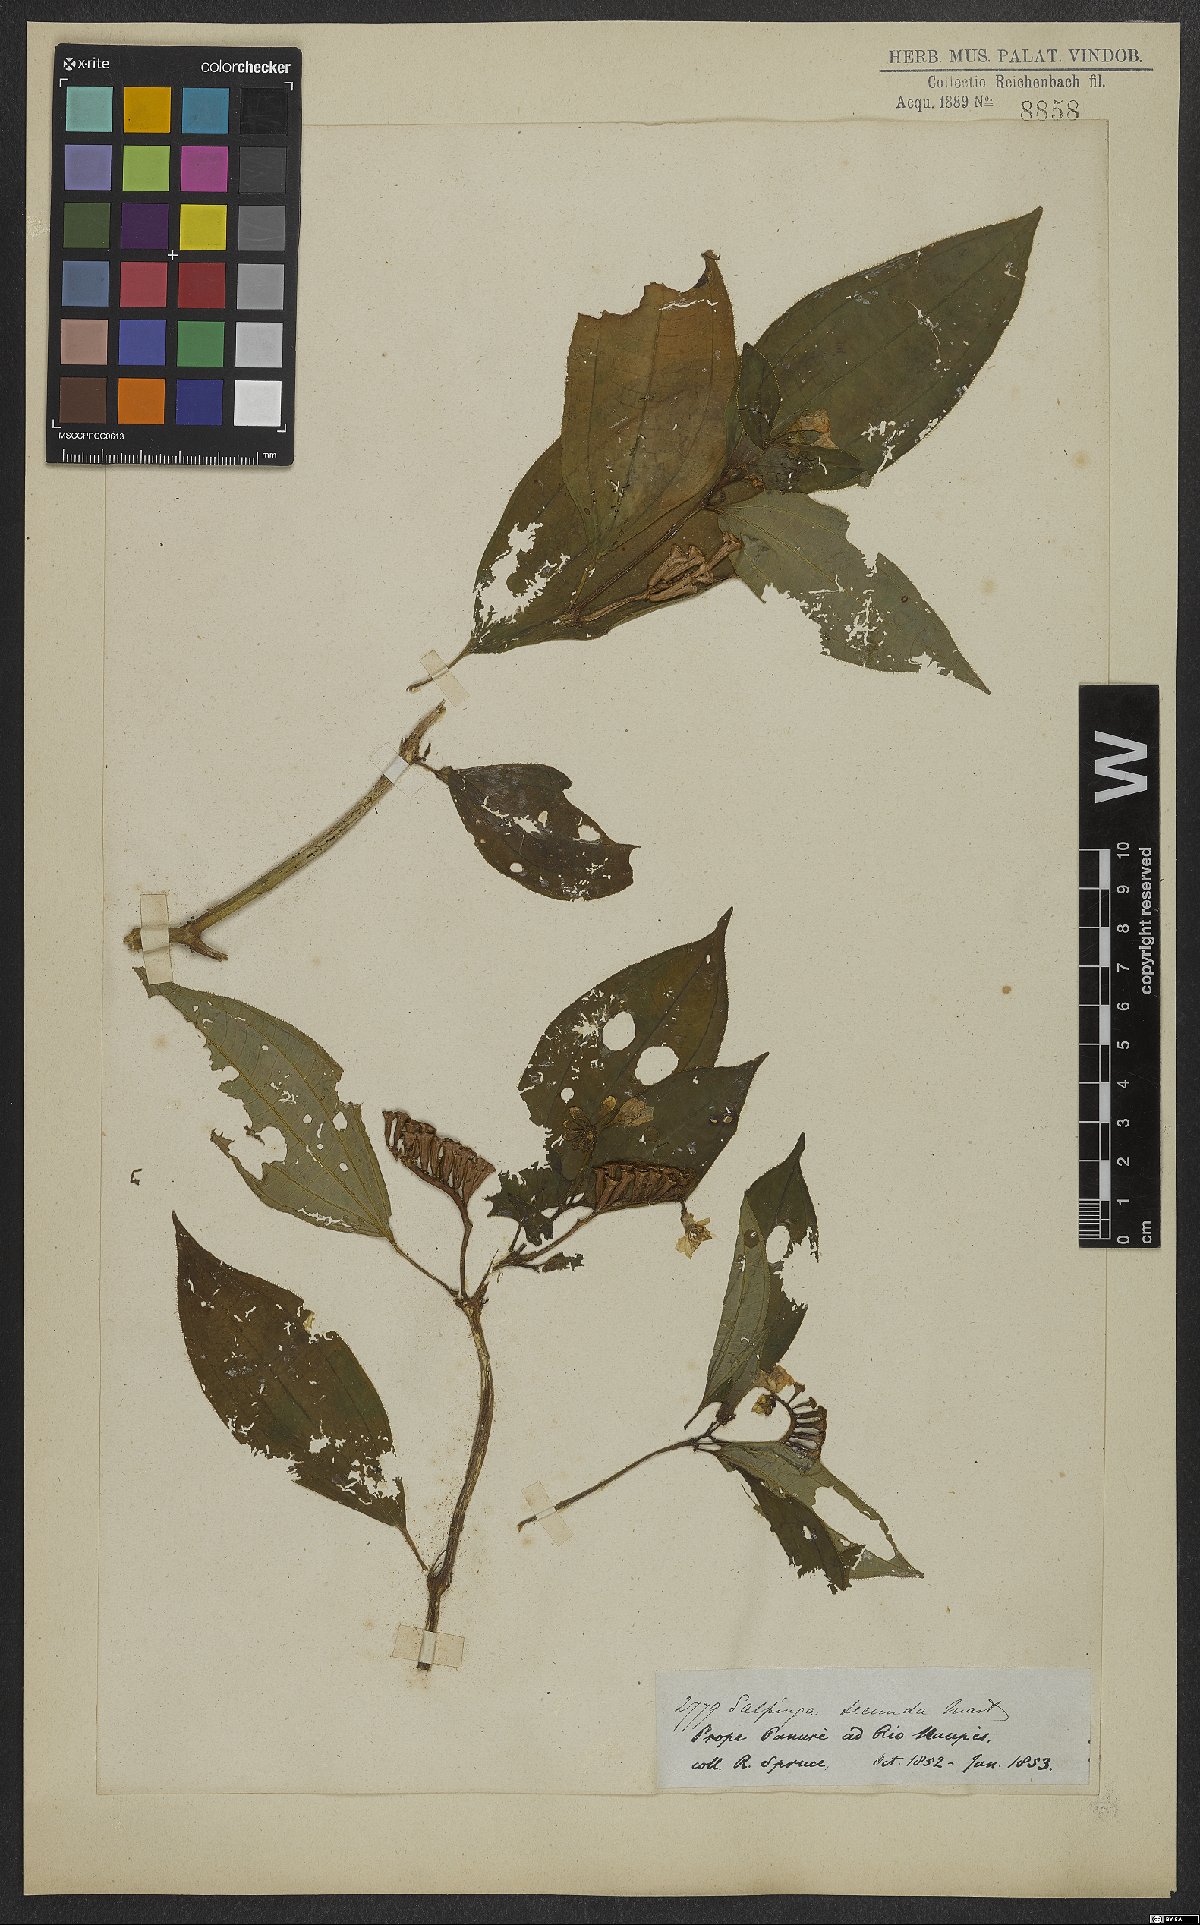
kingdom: Plantae
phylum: Tracheophyta
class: Magnoliopsida
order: Myrtales
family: Melastomataceae
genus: Salpinga
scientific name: Salpinga secunda
